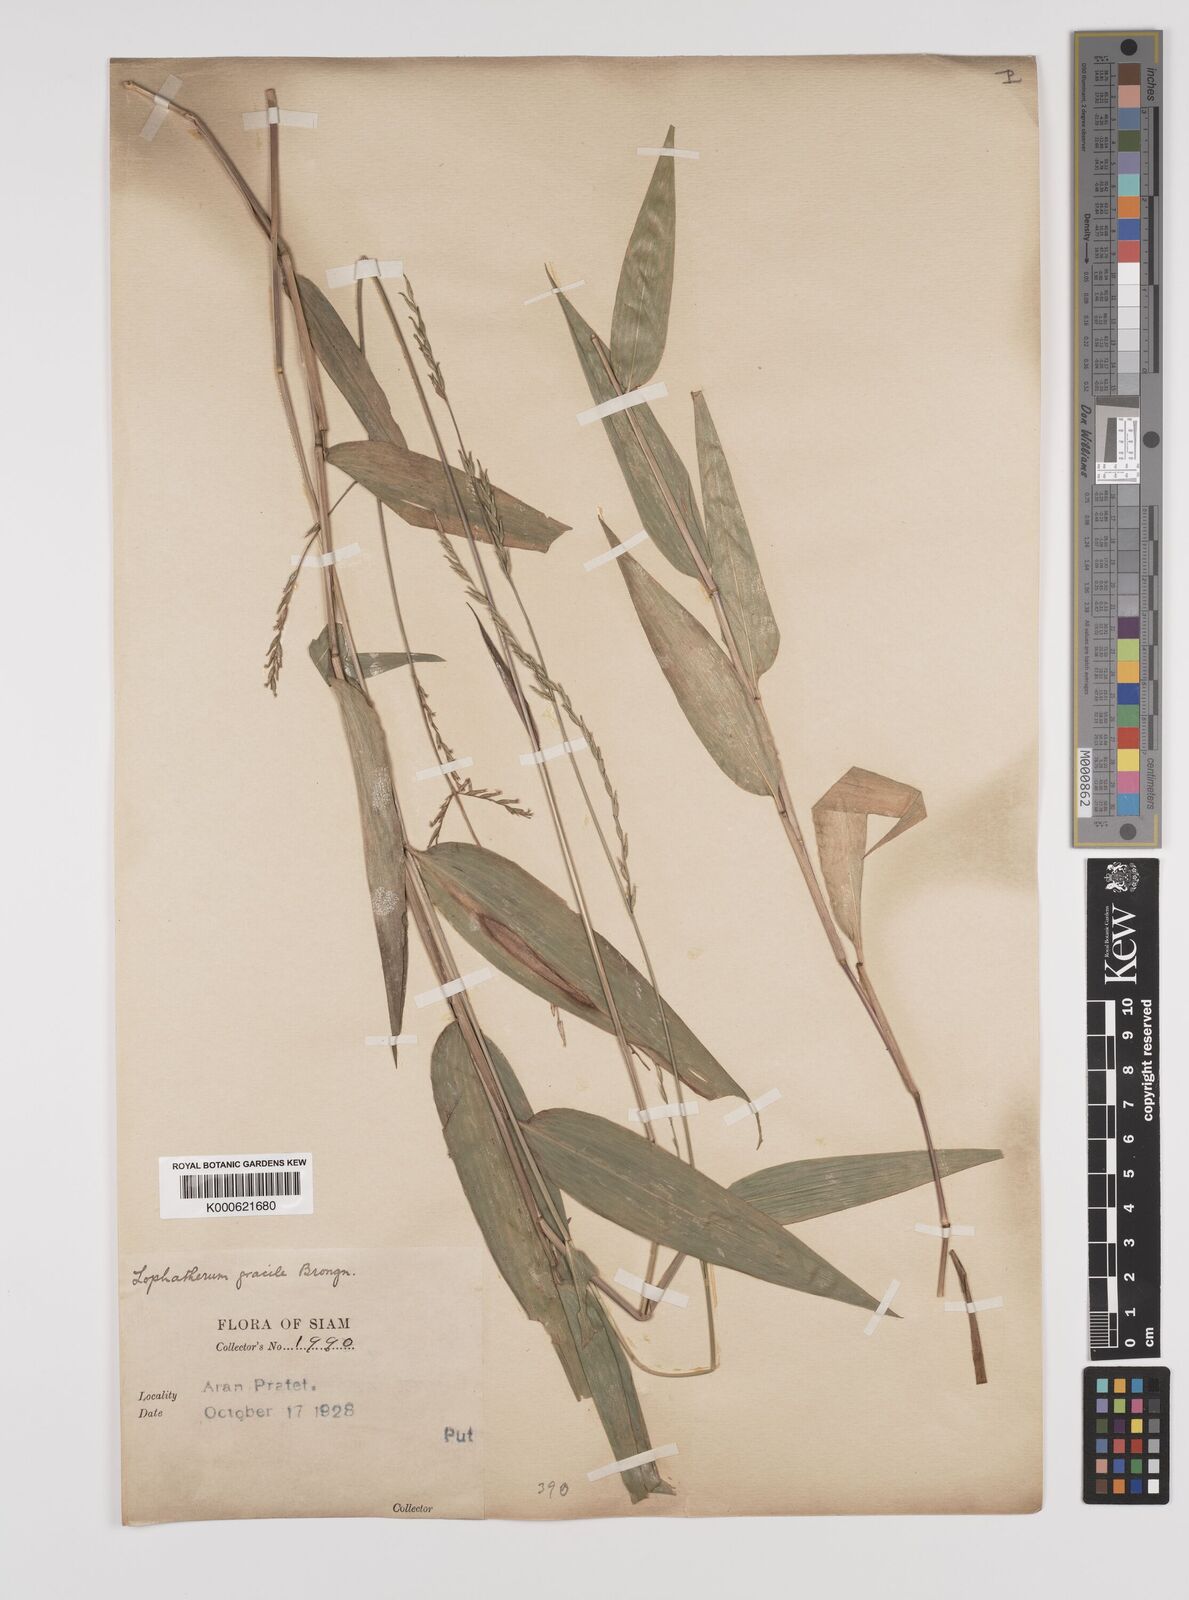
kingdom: Plantae
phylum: Tracheophyta
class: Liliopsida
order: Poales
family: Poaceae
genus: Lophatherum
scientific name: Lophatherum gracile
